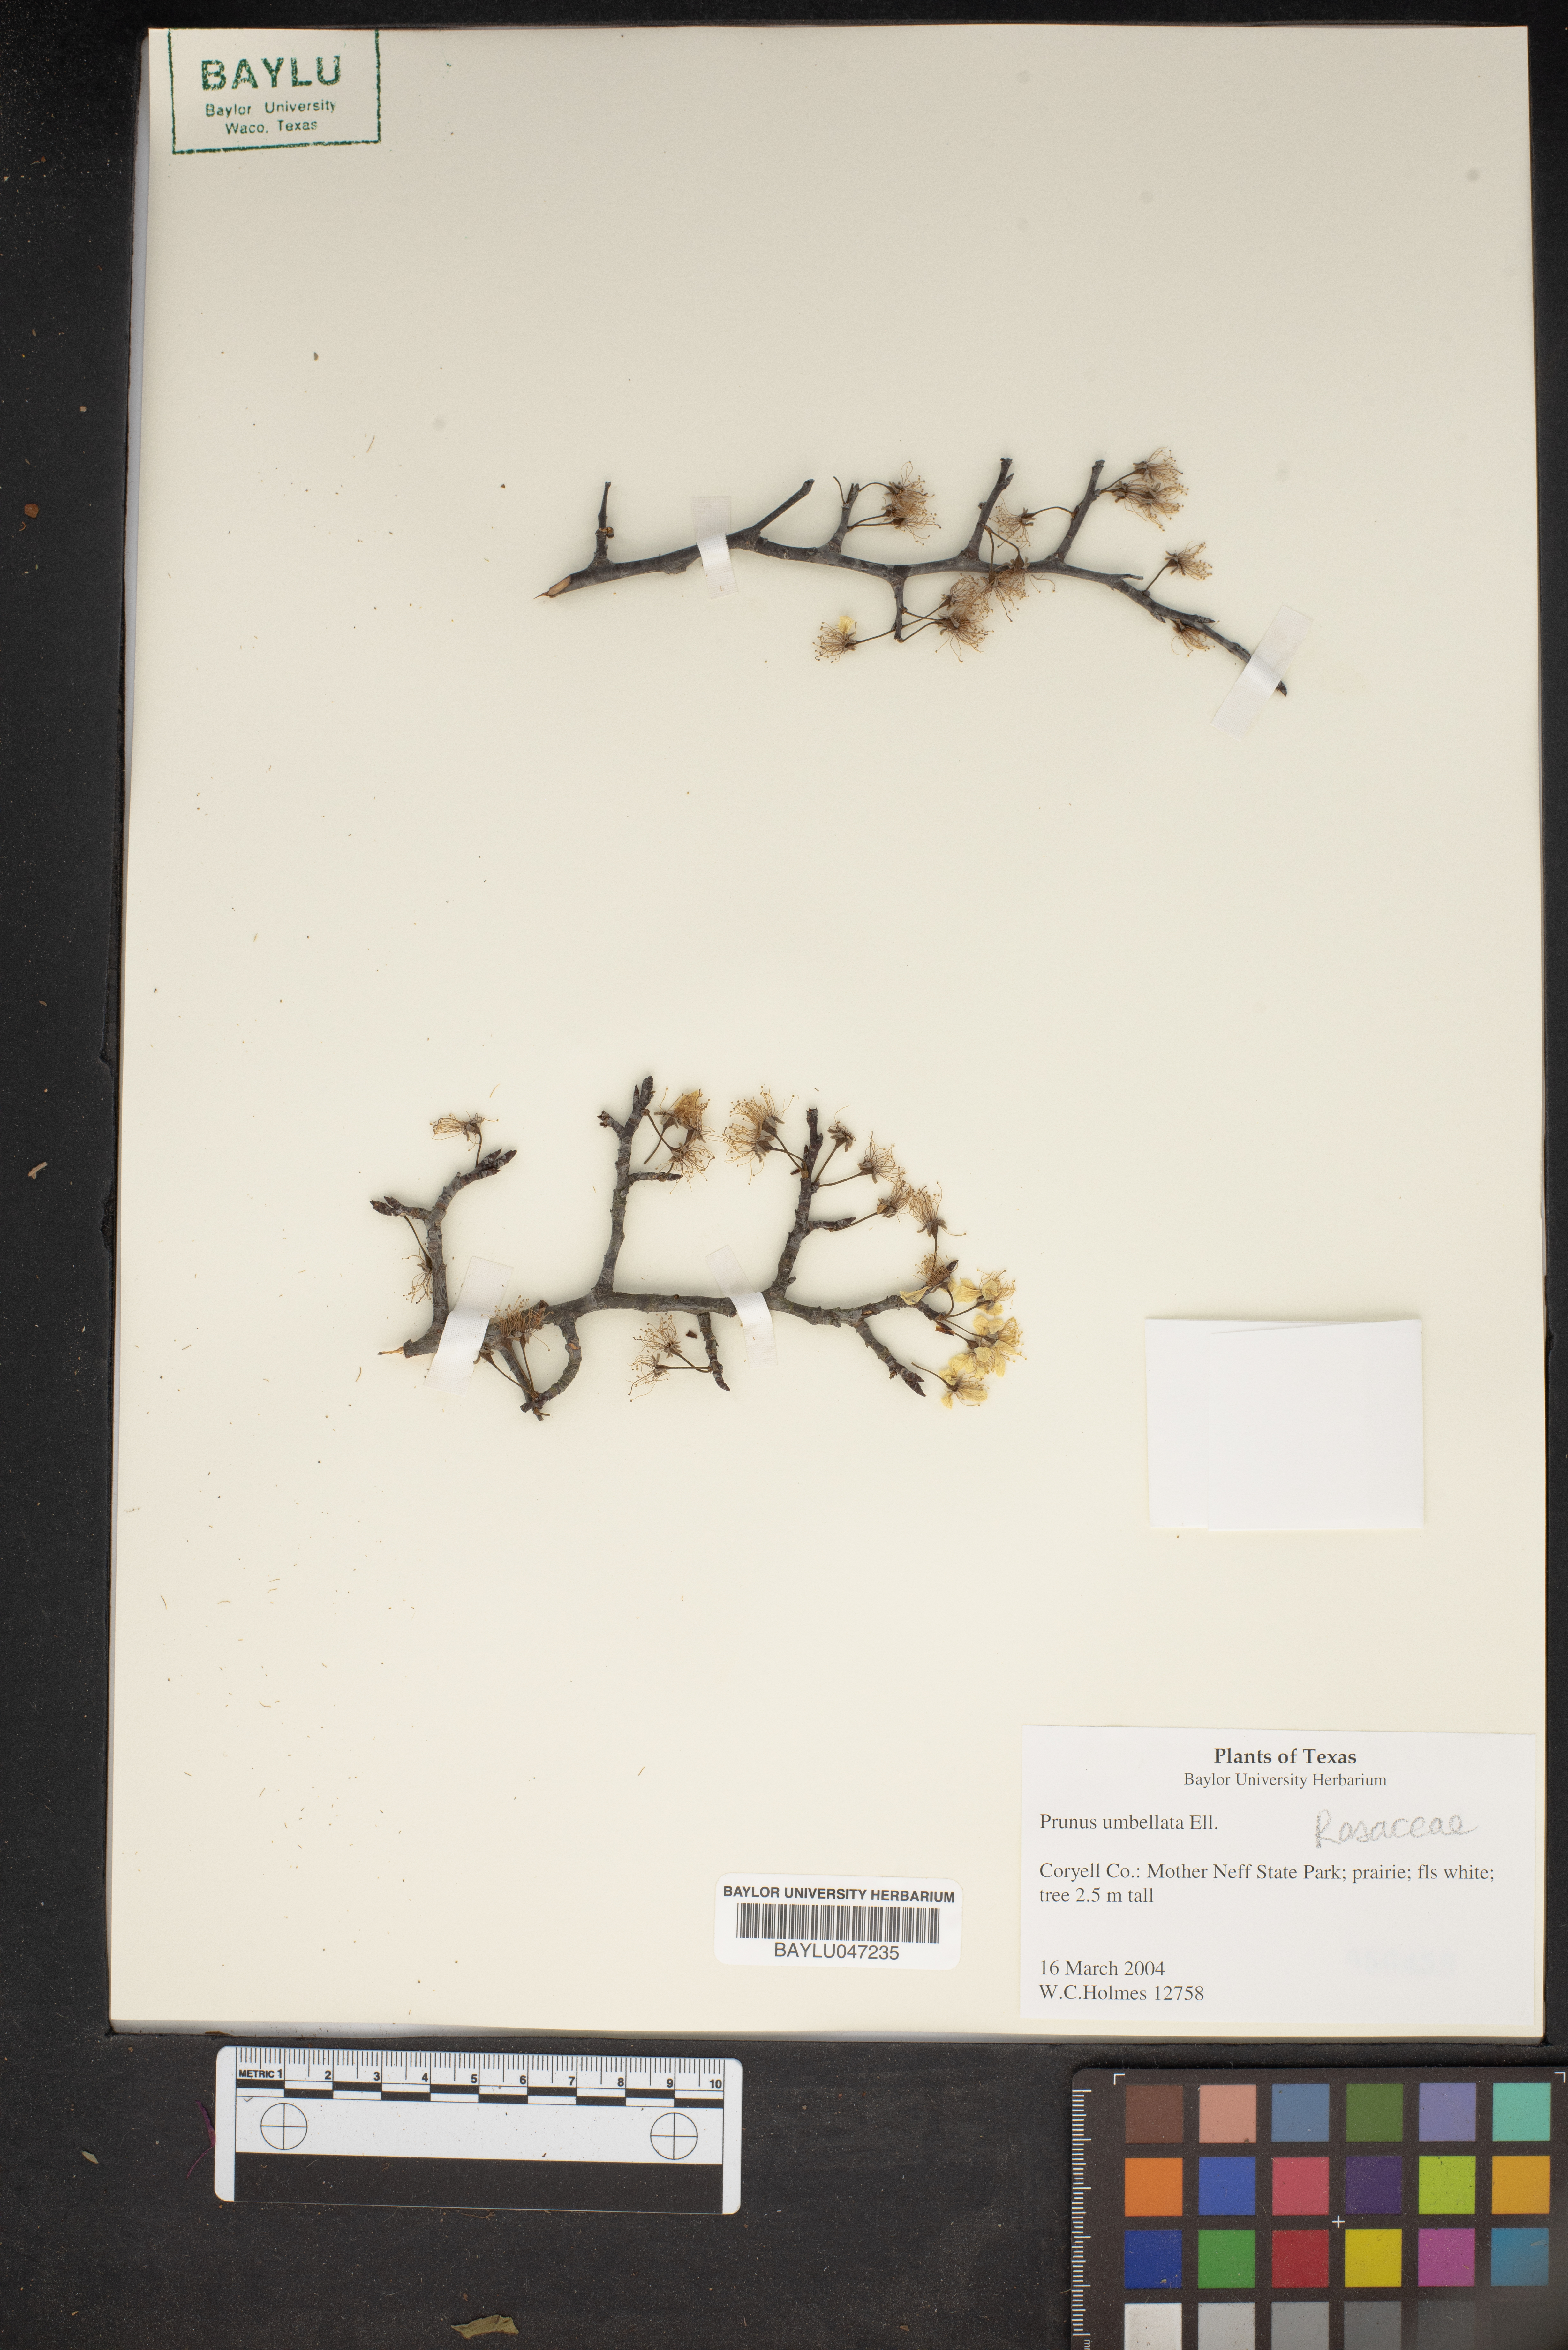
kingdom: Plantae
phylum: Tracheophyta
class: Magnoliopsida
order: Rosales
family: Rosaceae
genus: Prunus
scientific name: Prunus umbellata
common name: Allegheny plum
